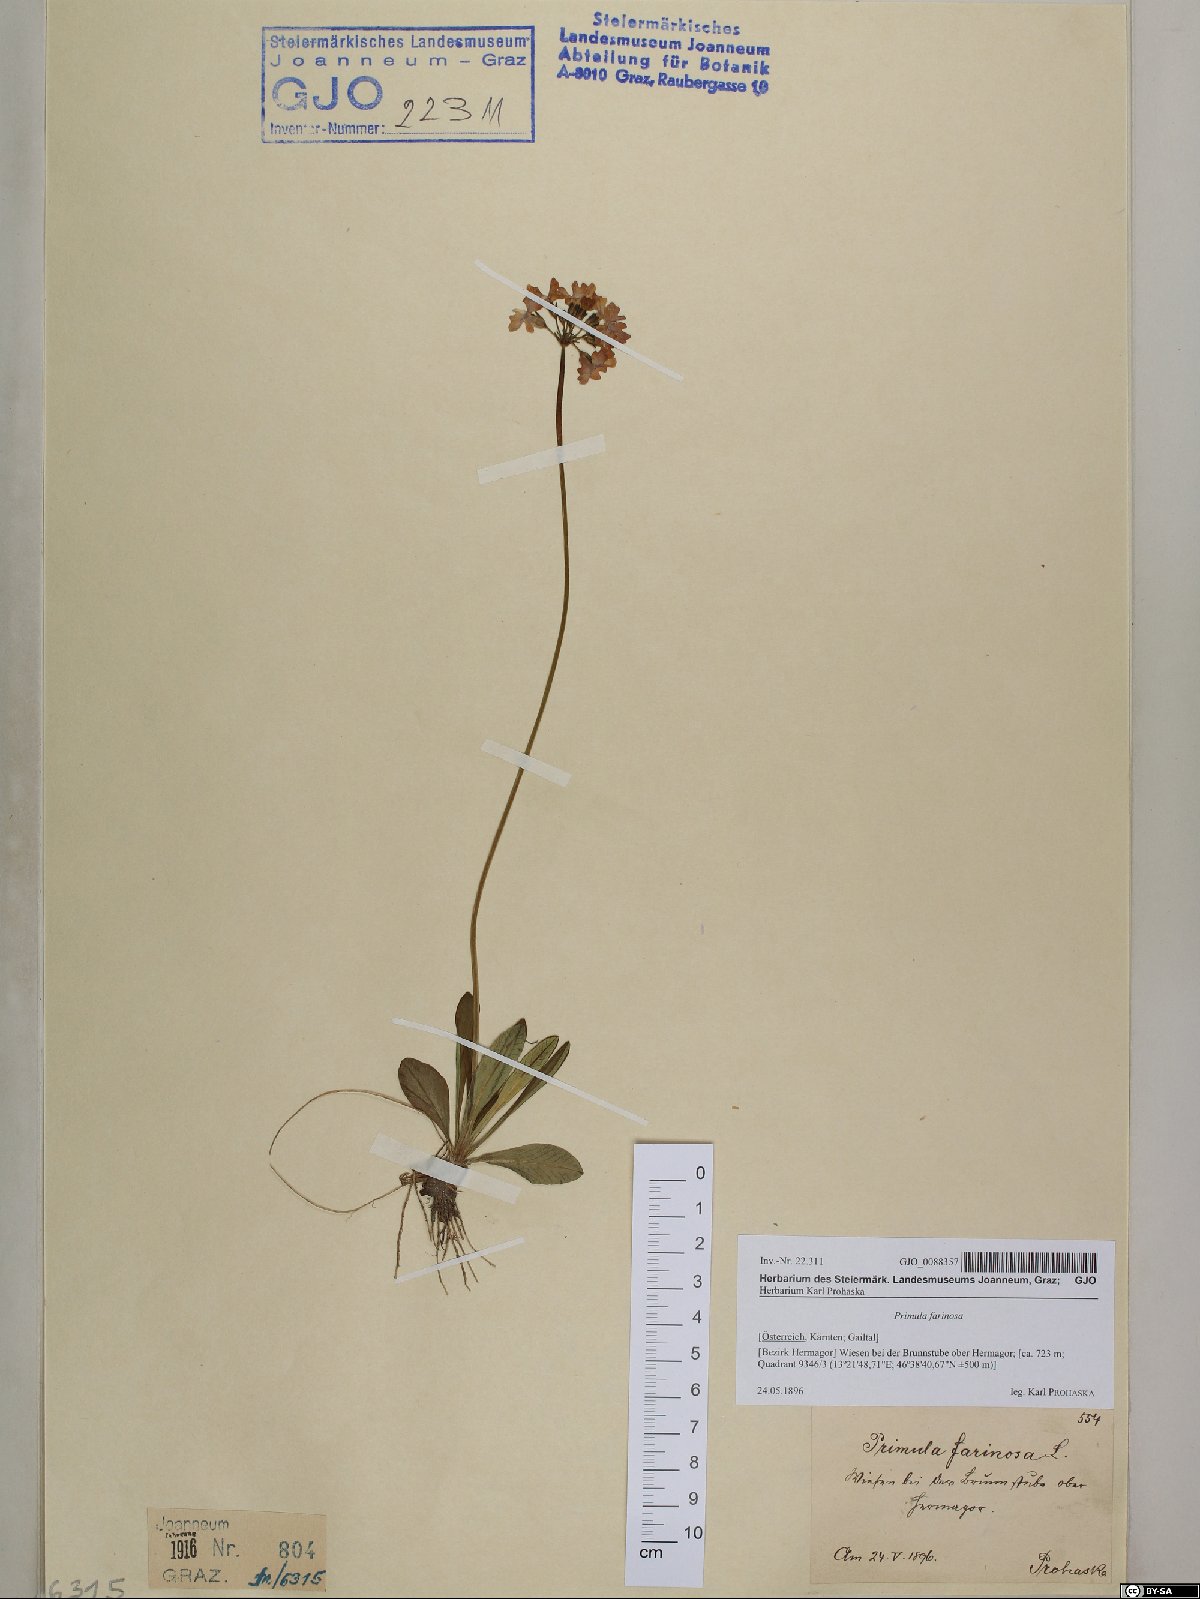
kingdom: Plantae
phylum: Tracheophyta
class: Magnoliopsida
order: Ericales
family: Primulaceae
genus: Primula
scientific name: Primula farinosa
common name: Bird's-eye primrose
